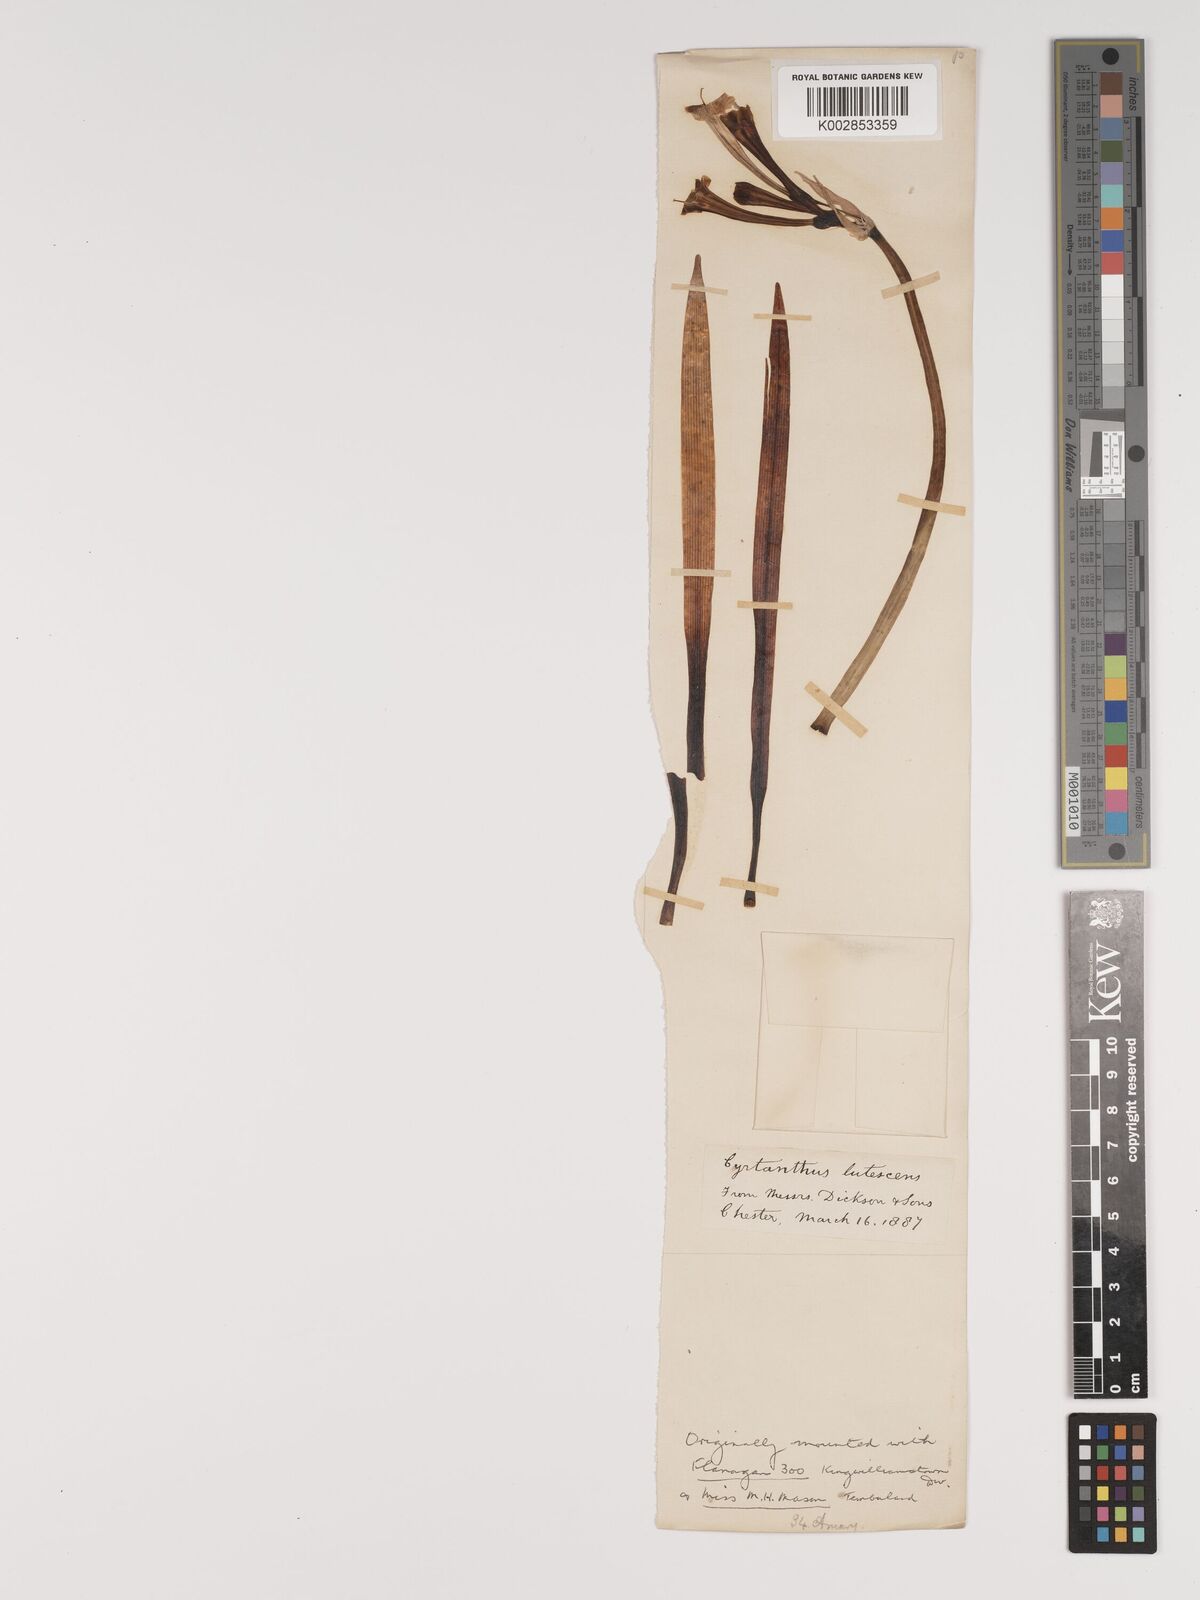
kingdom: Plantae
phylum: Tracheophyta
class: Liliopsida
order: Asparagales
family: Amaryllidaceae
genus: Cyrtanthus
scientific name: Cyrtanthus ochroleucus
